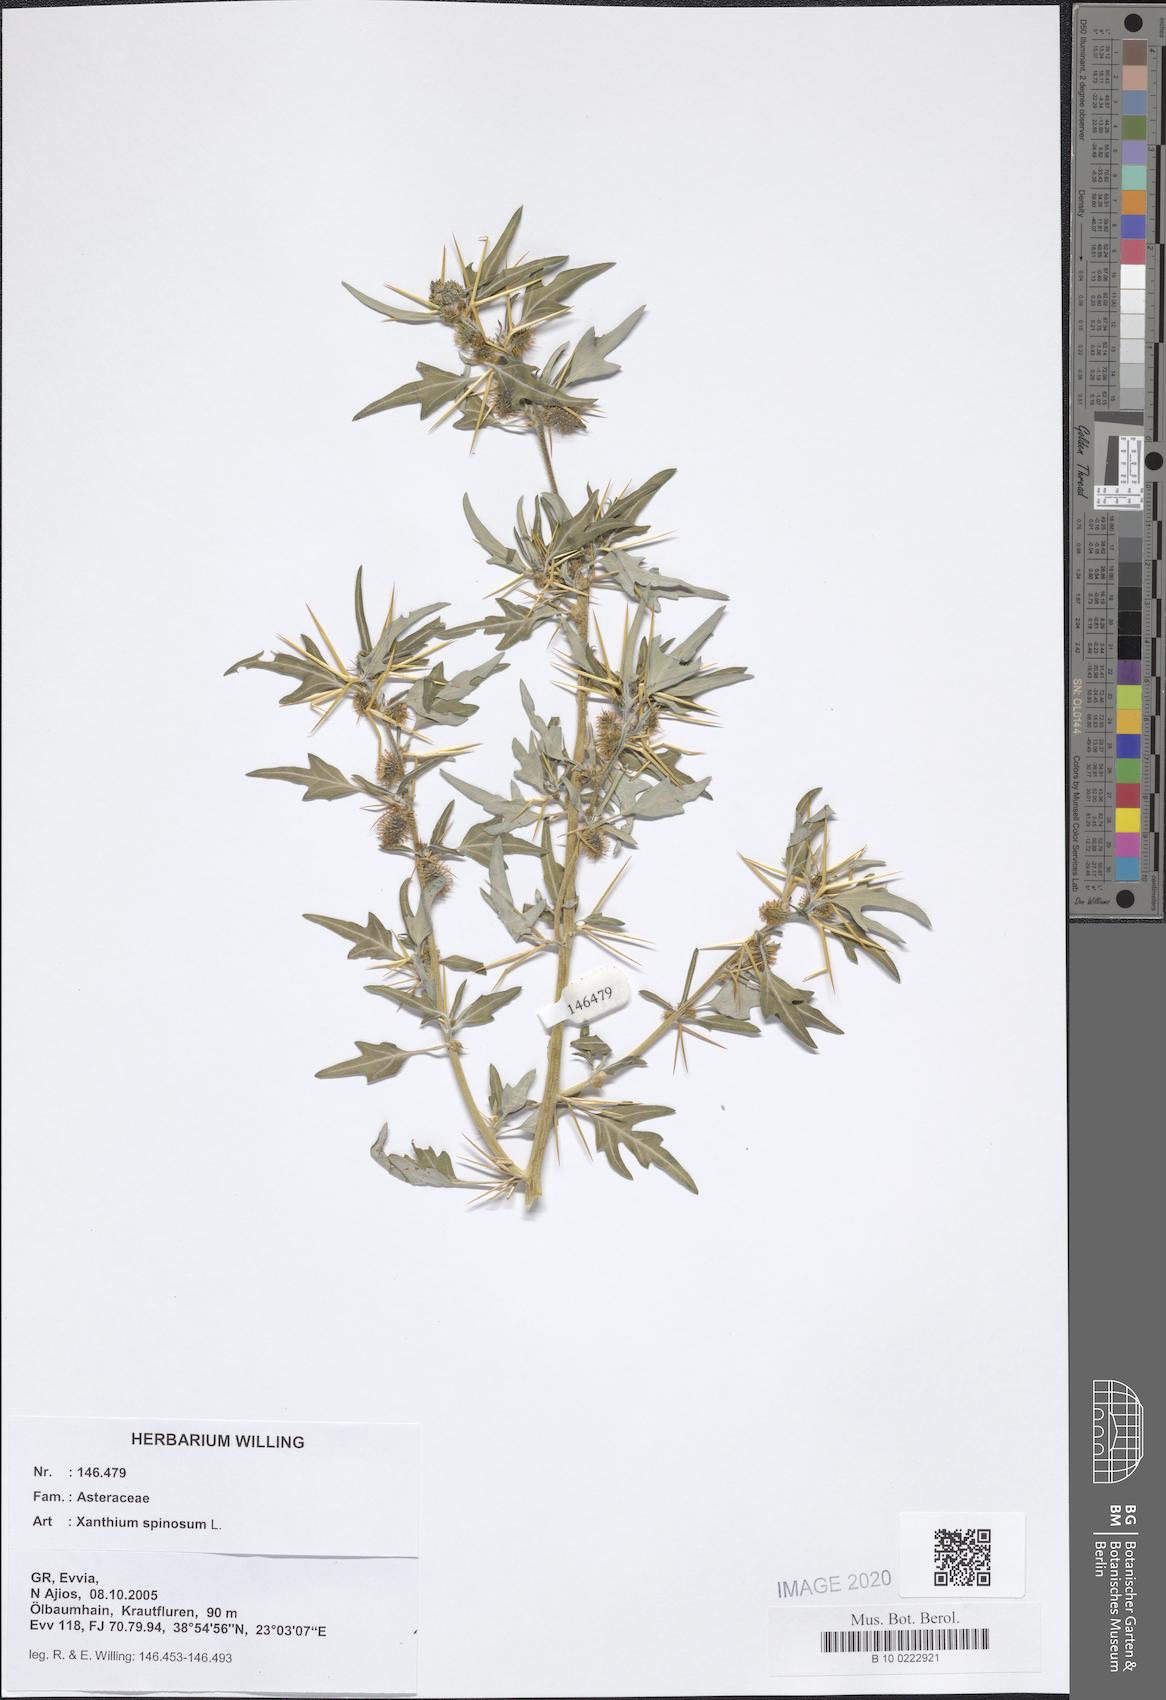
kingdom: Plantae
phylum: Tracheophyta
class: Magnoliopsida
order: Asterales
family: Asteraceae
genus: Xanthium
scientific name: Xanthium spinosum
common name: Spiny cocklebur
